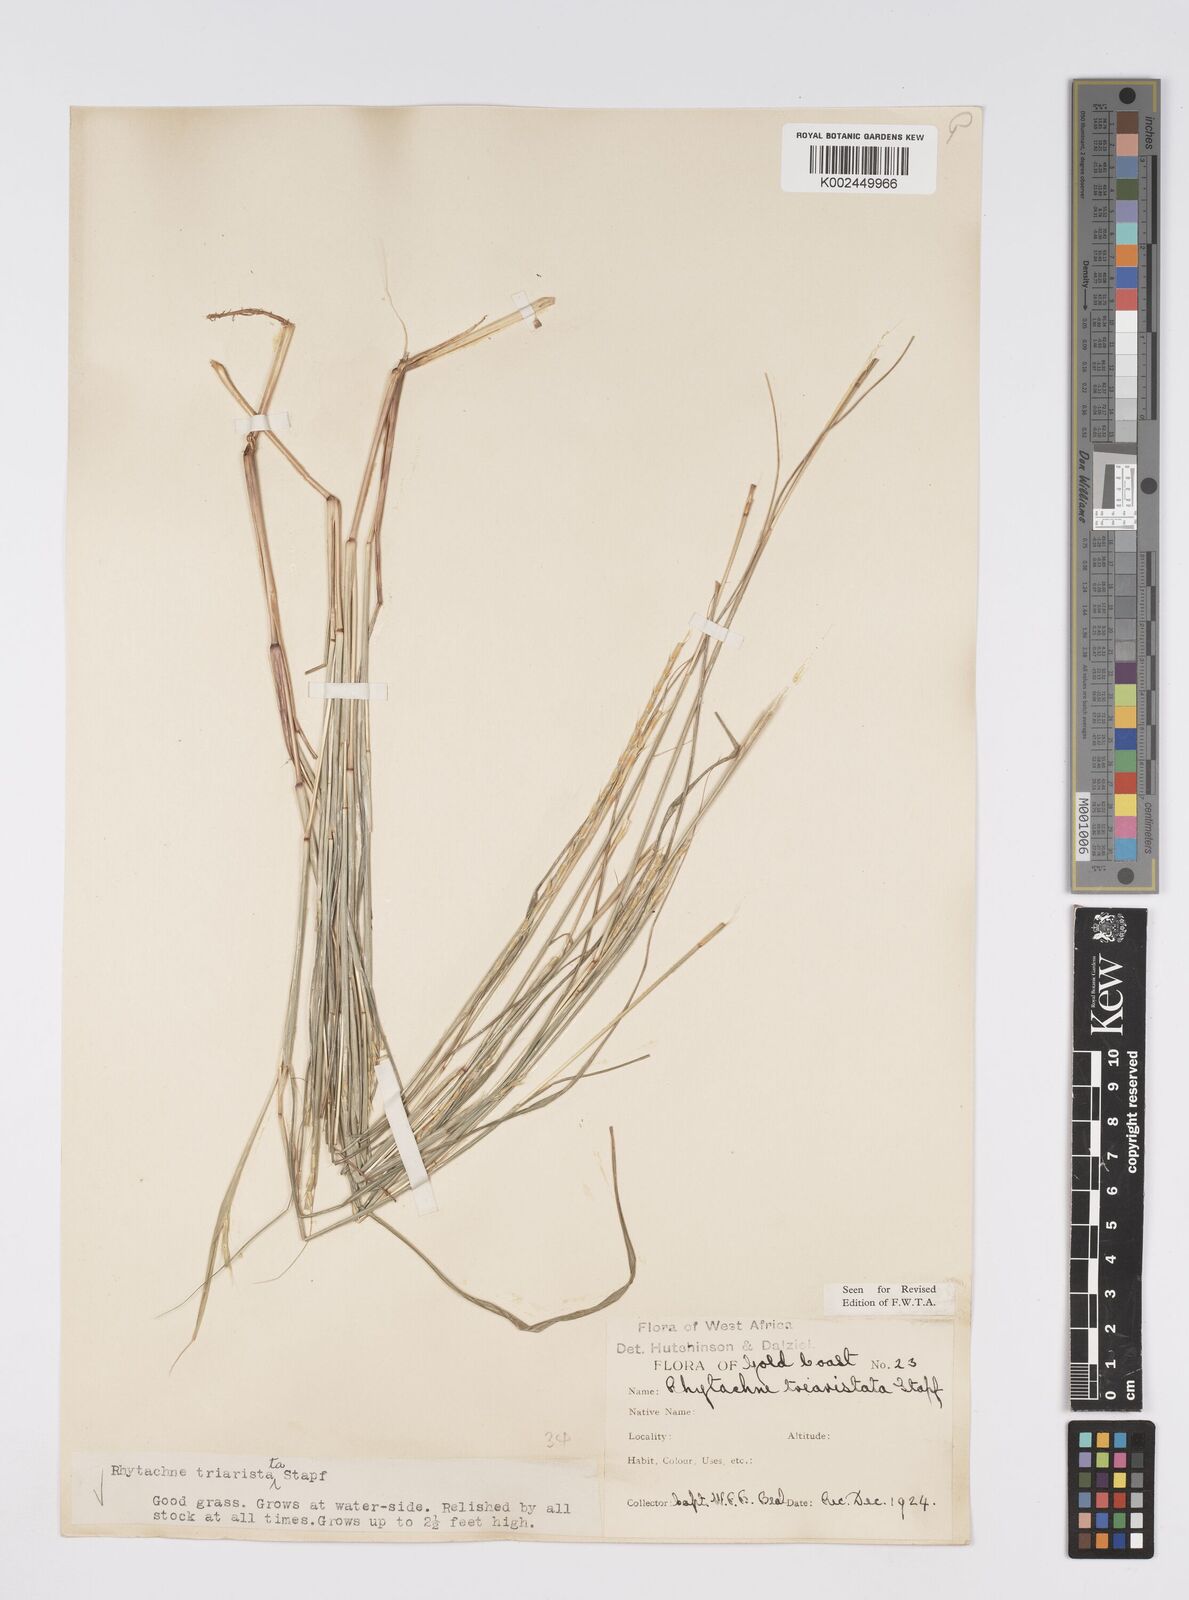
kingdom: Plantae
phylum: Tracheophyta
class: Liliopsida
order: Poales
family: Poaceae
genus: Rhytachne
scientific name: Rhytachne triaristata
